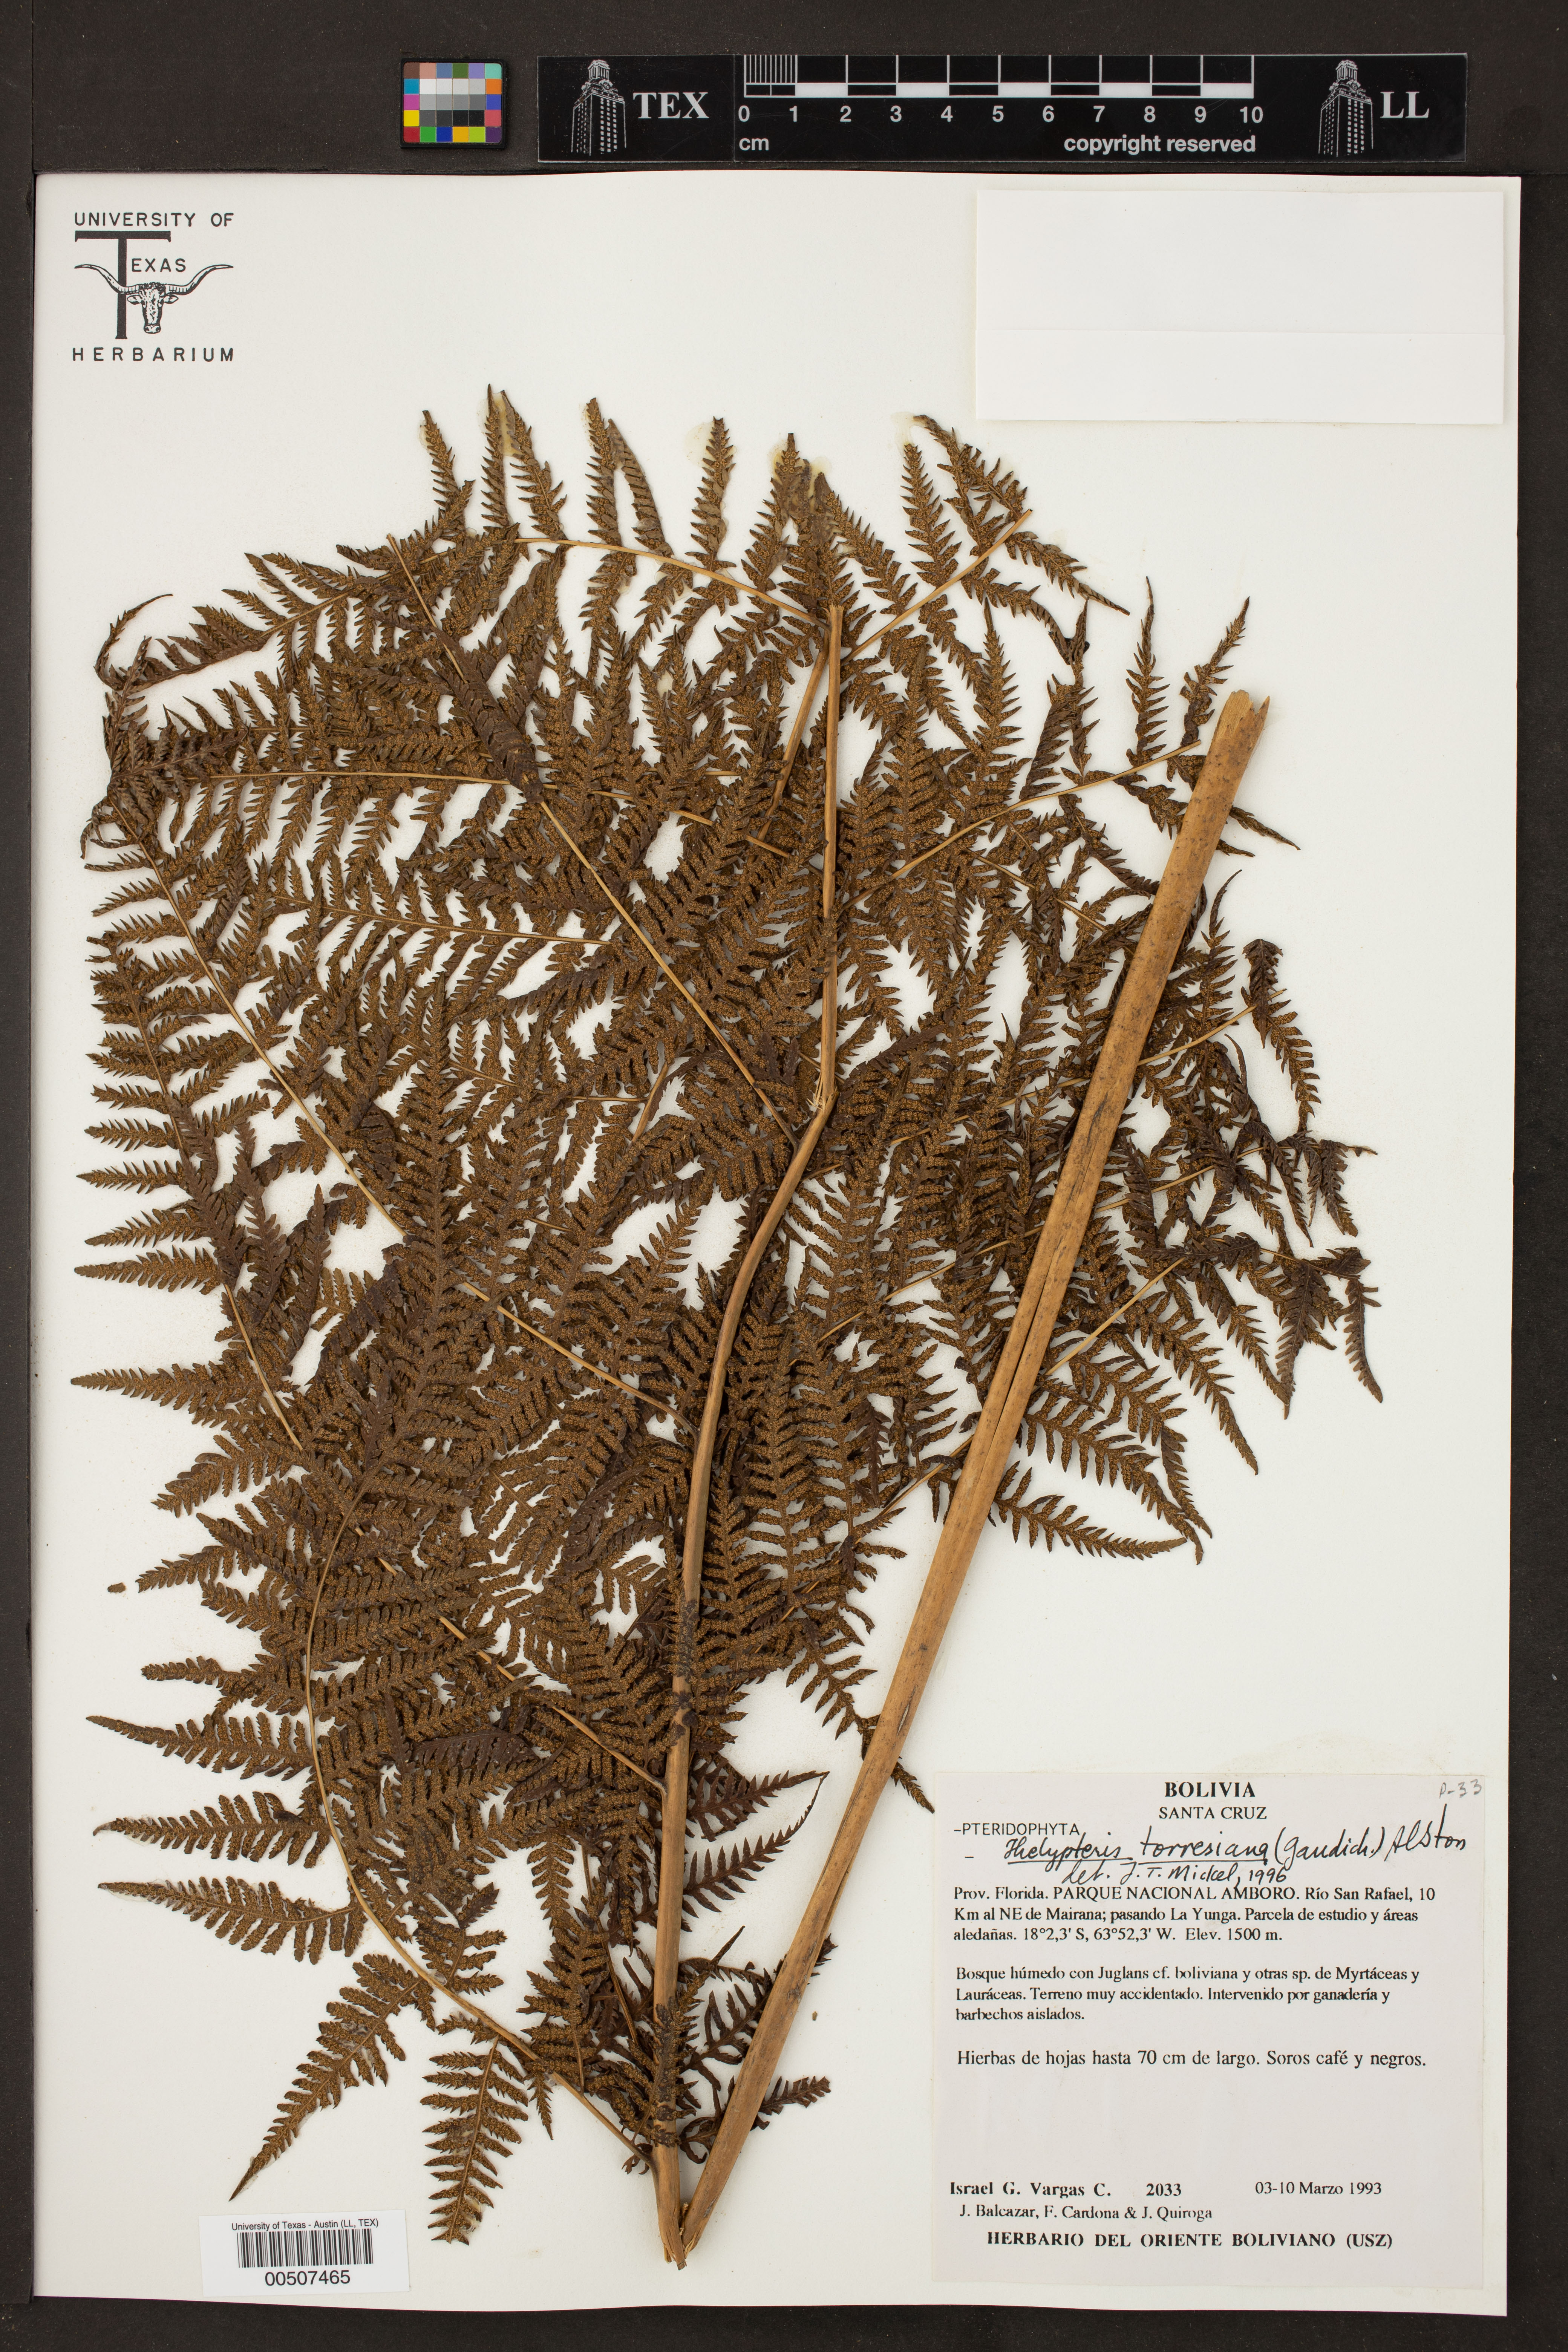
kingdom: Plantae
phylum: Tracheophyta
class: Polypodiopsida
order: Polypodiales
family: Thelypteridaceae
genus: Macrothelypteris
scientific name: Macrothelypteris torresiana
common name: Swordfern
